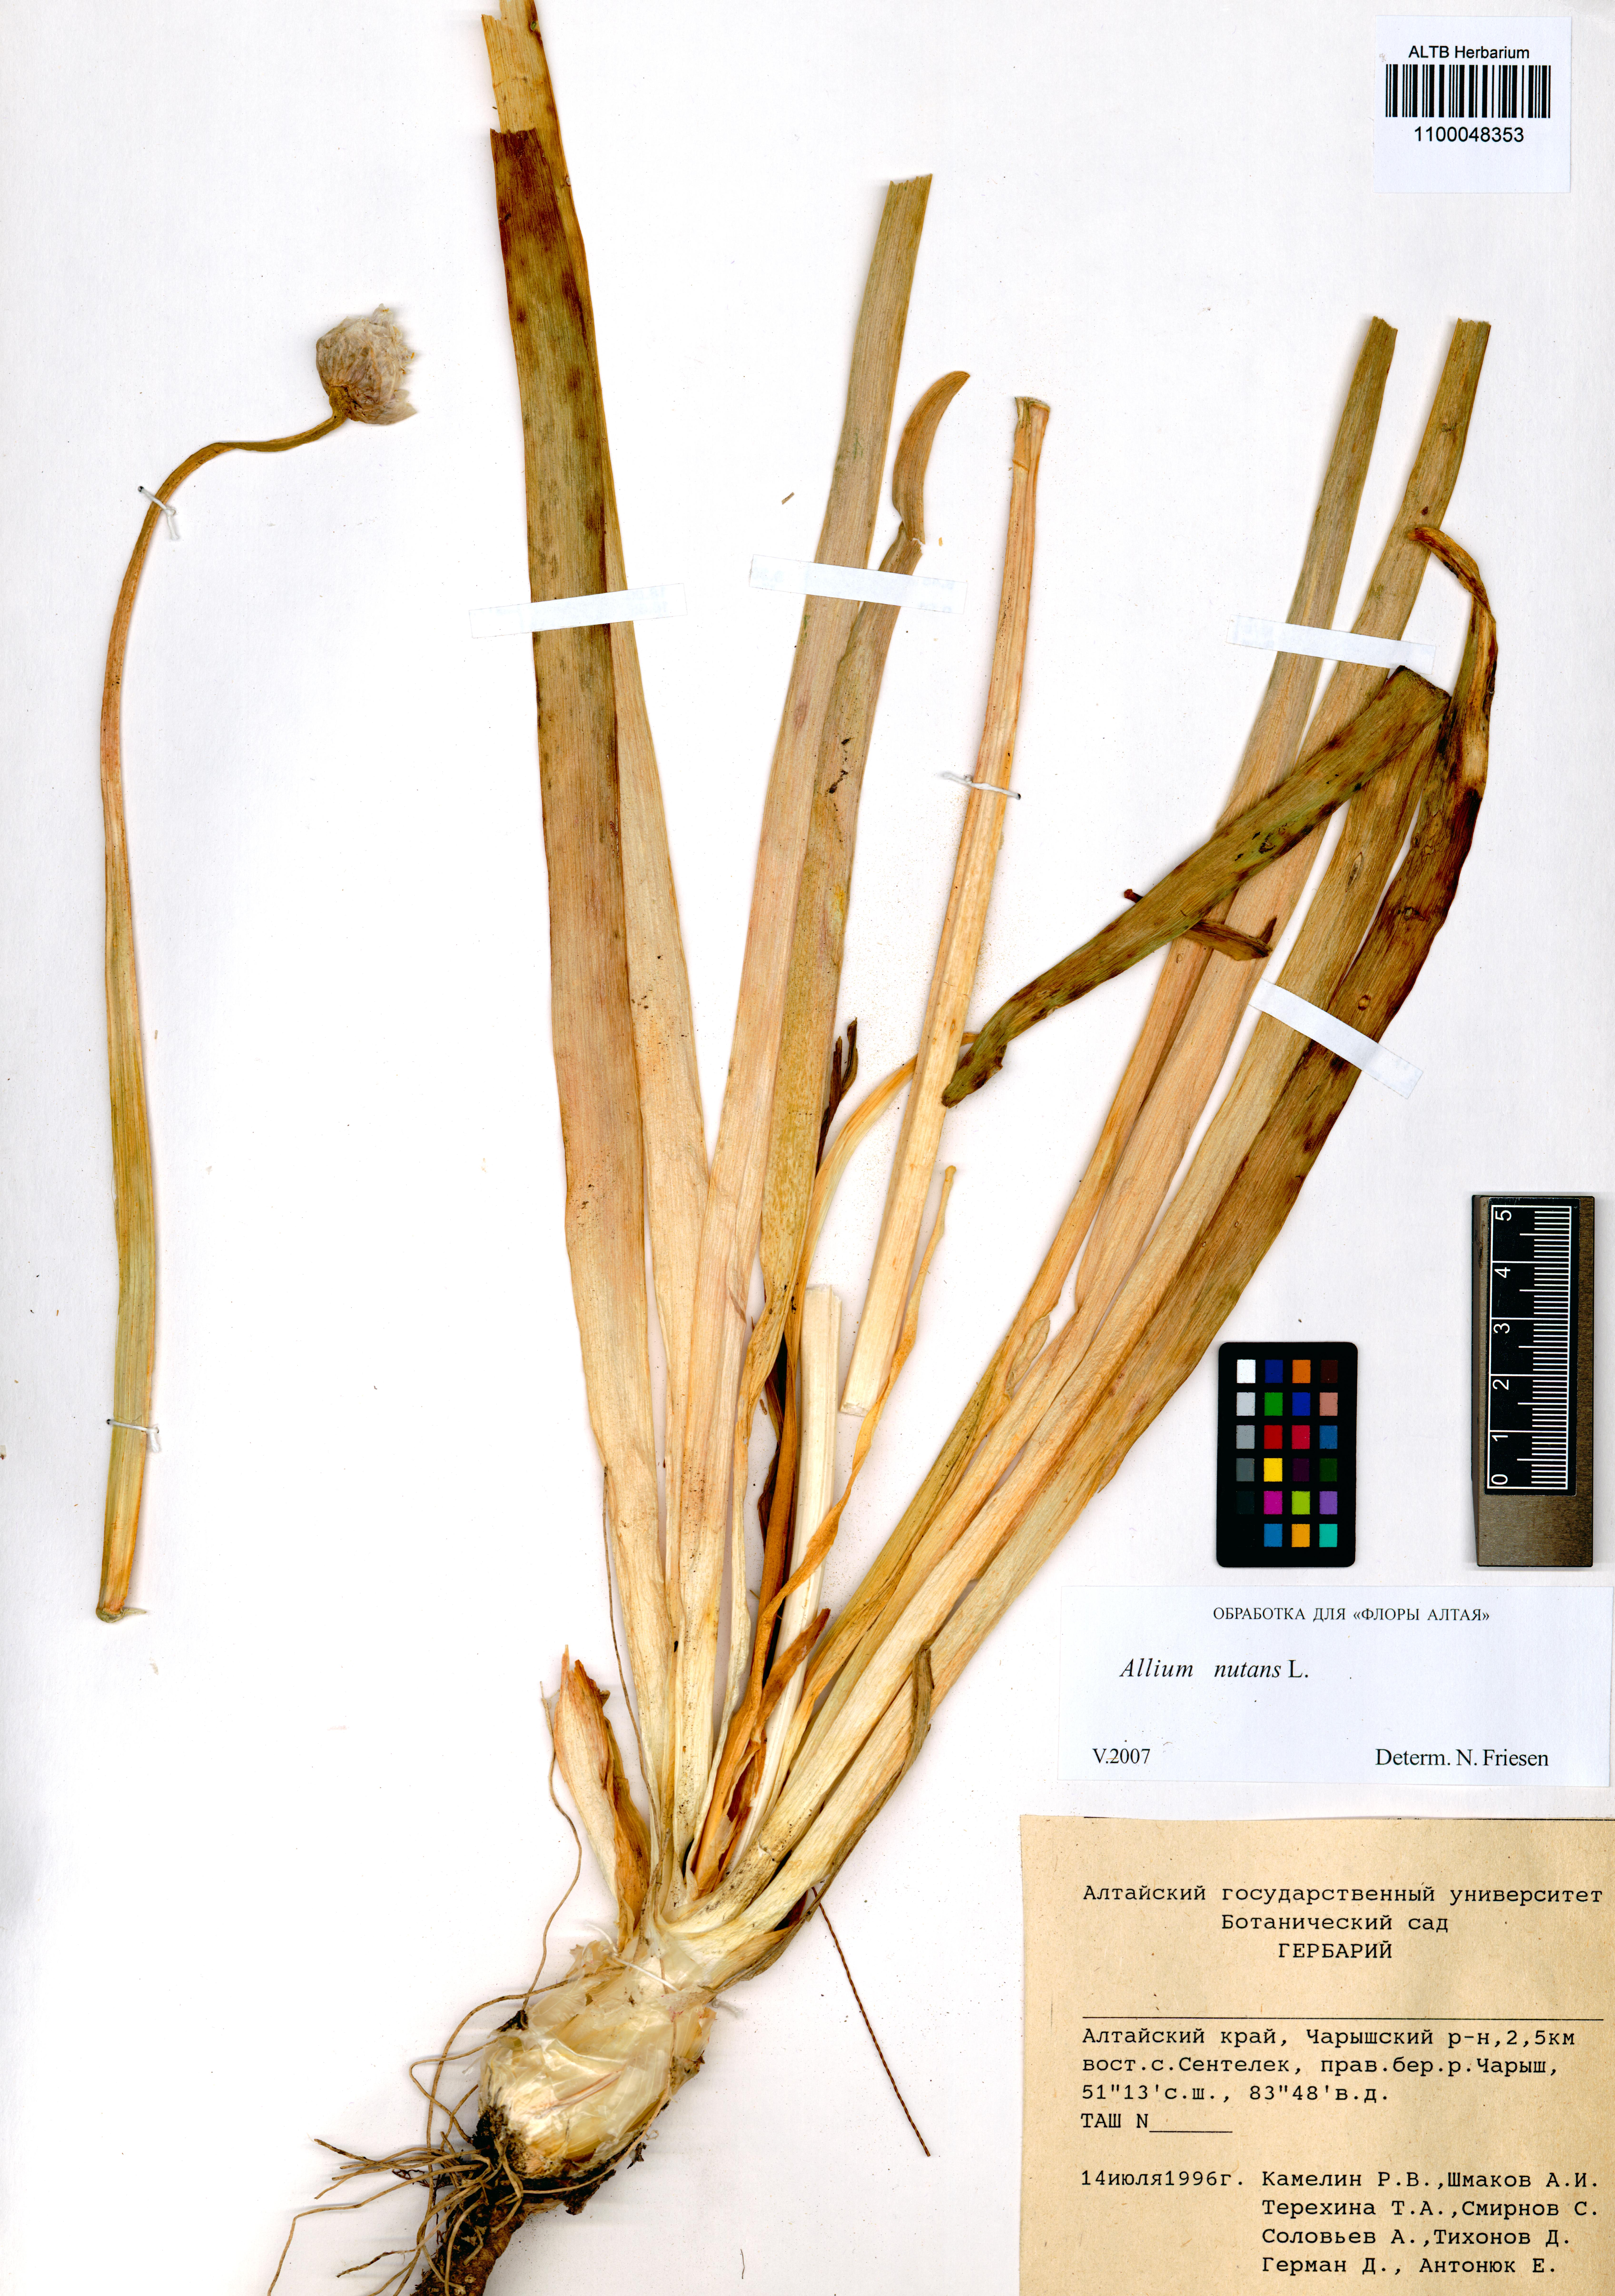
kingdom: Plantae
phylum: Tracheophyta
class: Liliopsida
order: Asparagales
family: Amaryllidaceae
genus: Allium
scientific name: Allium nutans
